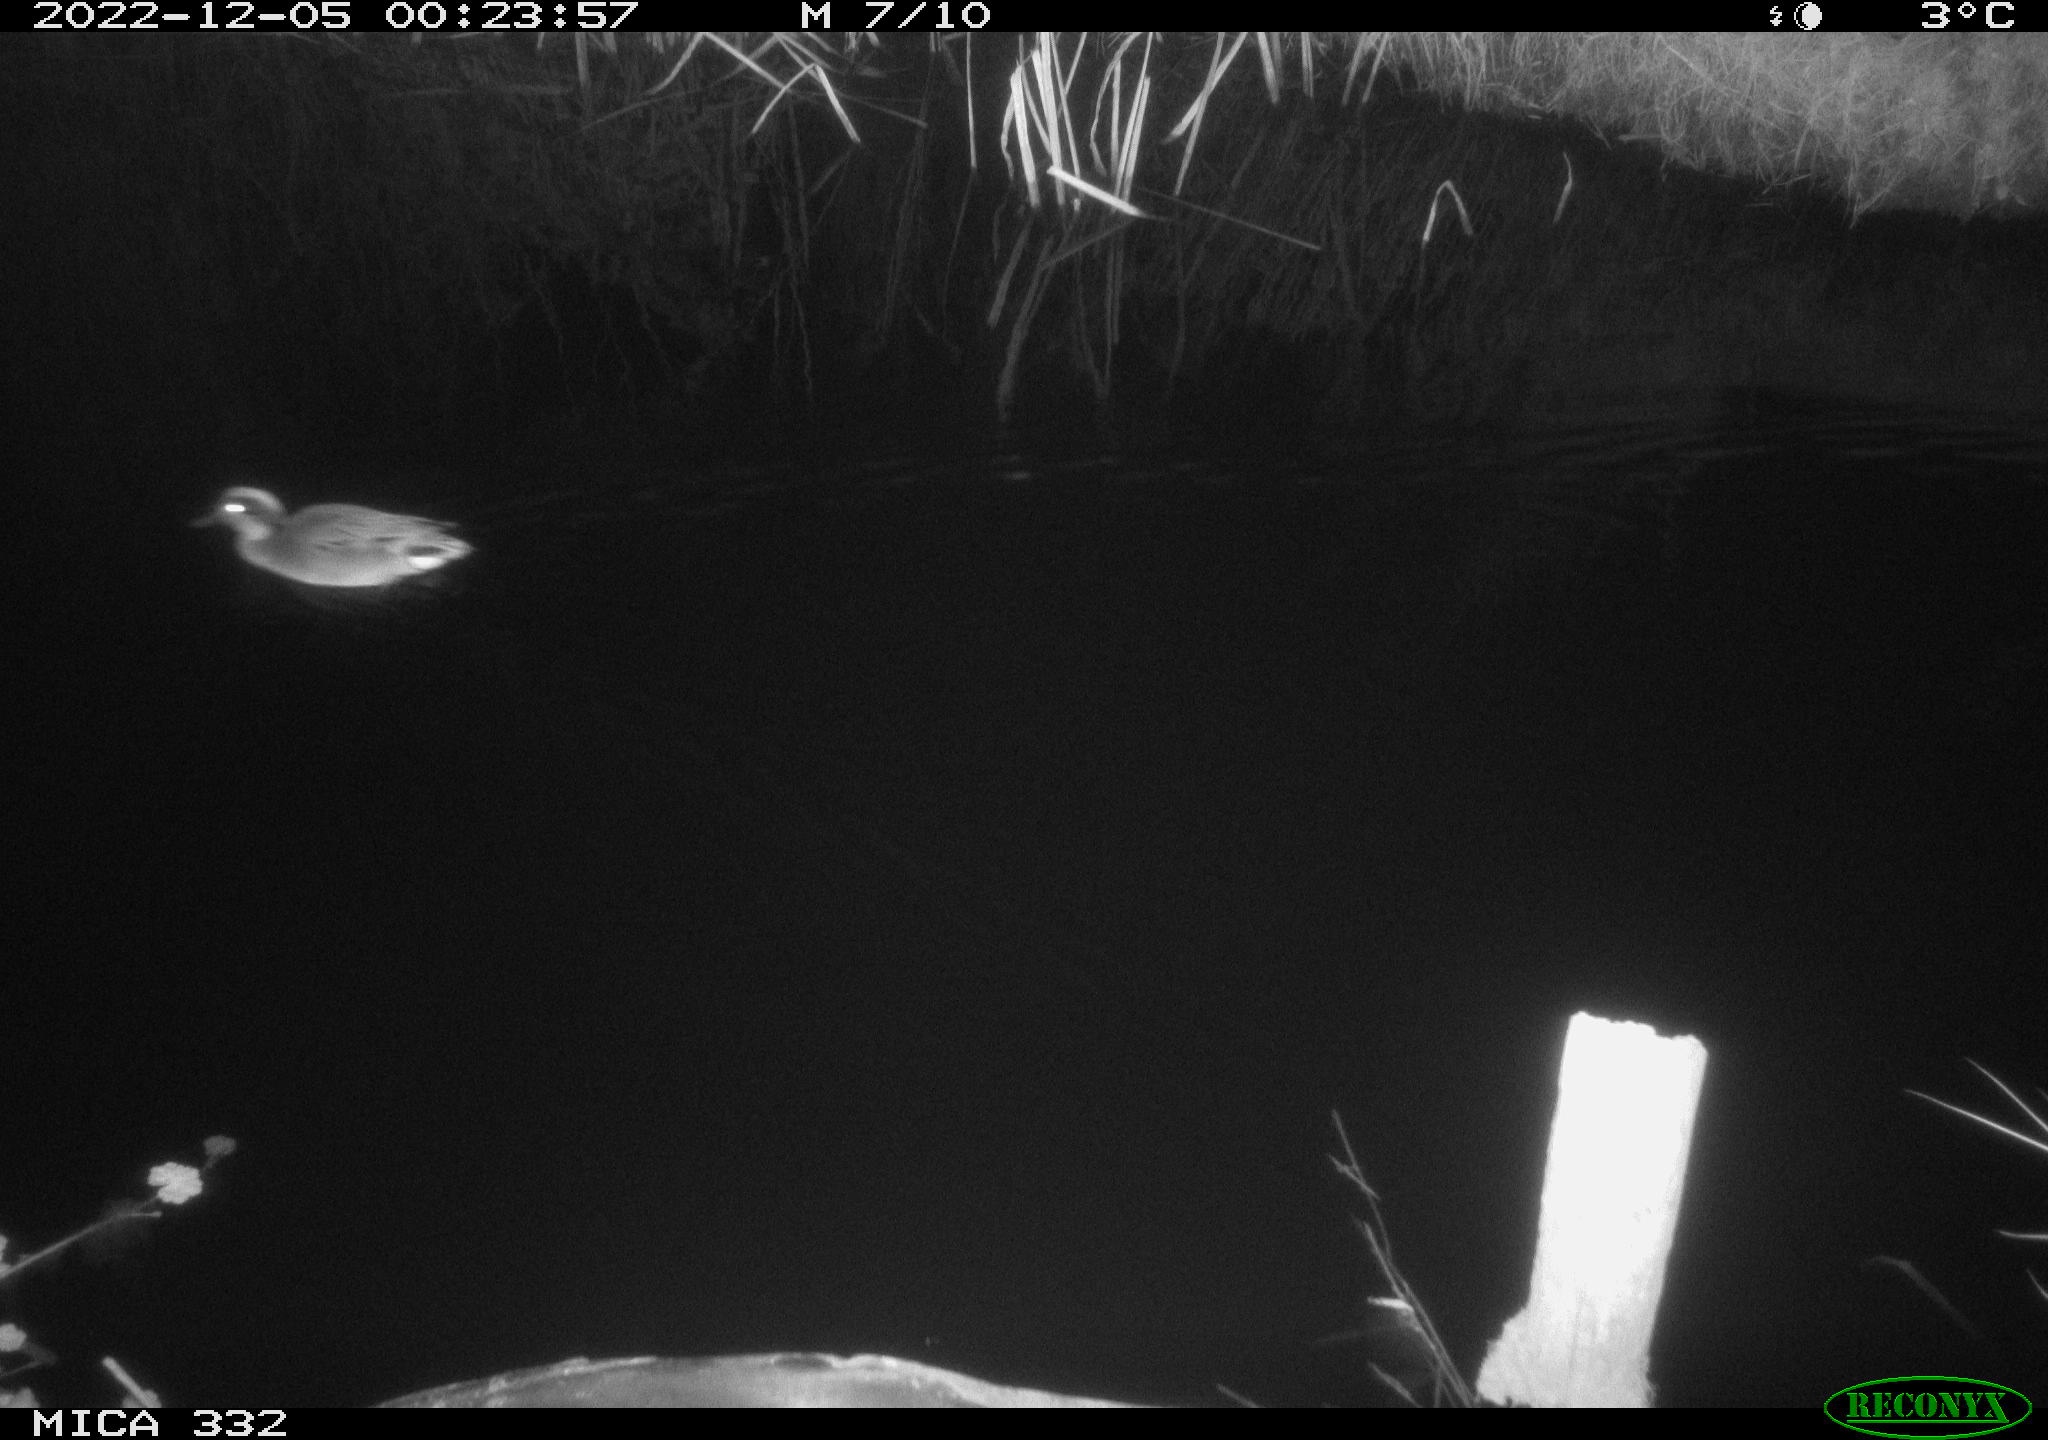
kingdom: Animalia
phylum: Chordata
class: Aves
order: Anseriformes
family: Anatidae
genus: Anas
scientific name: Anas
